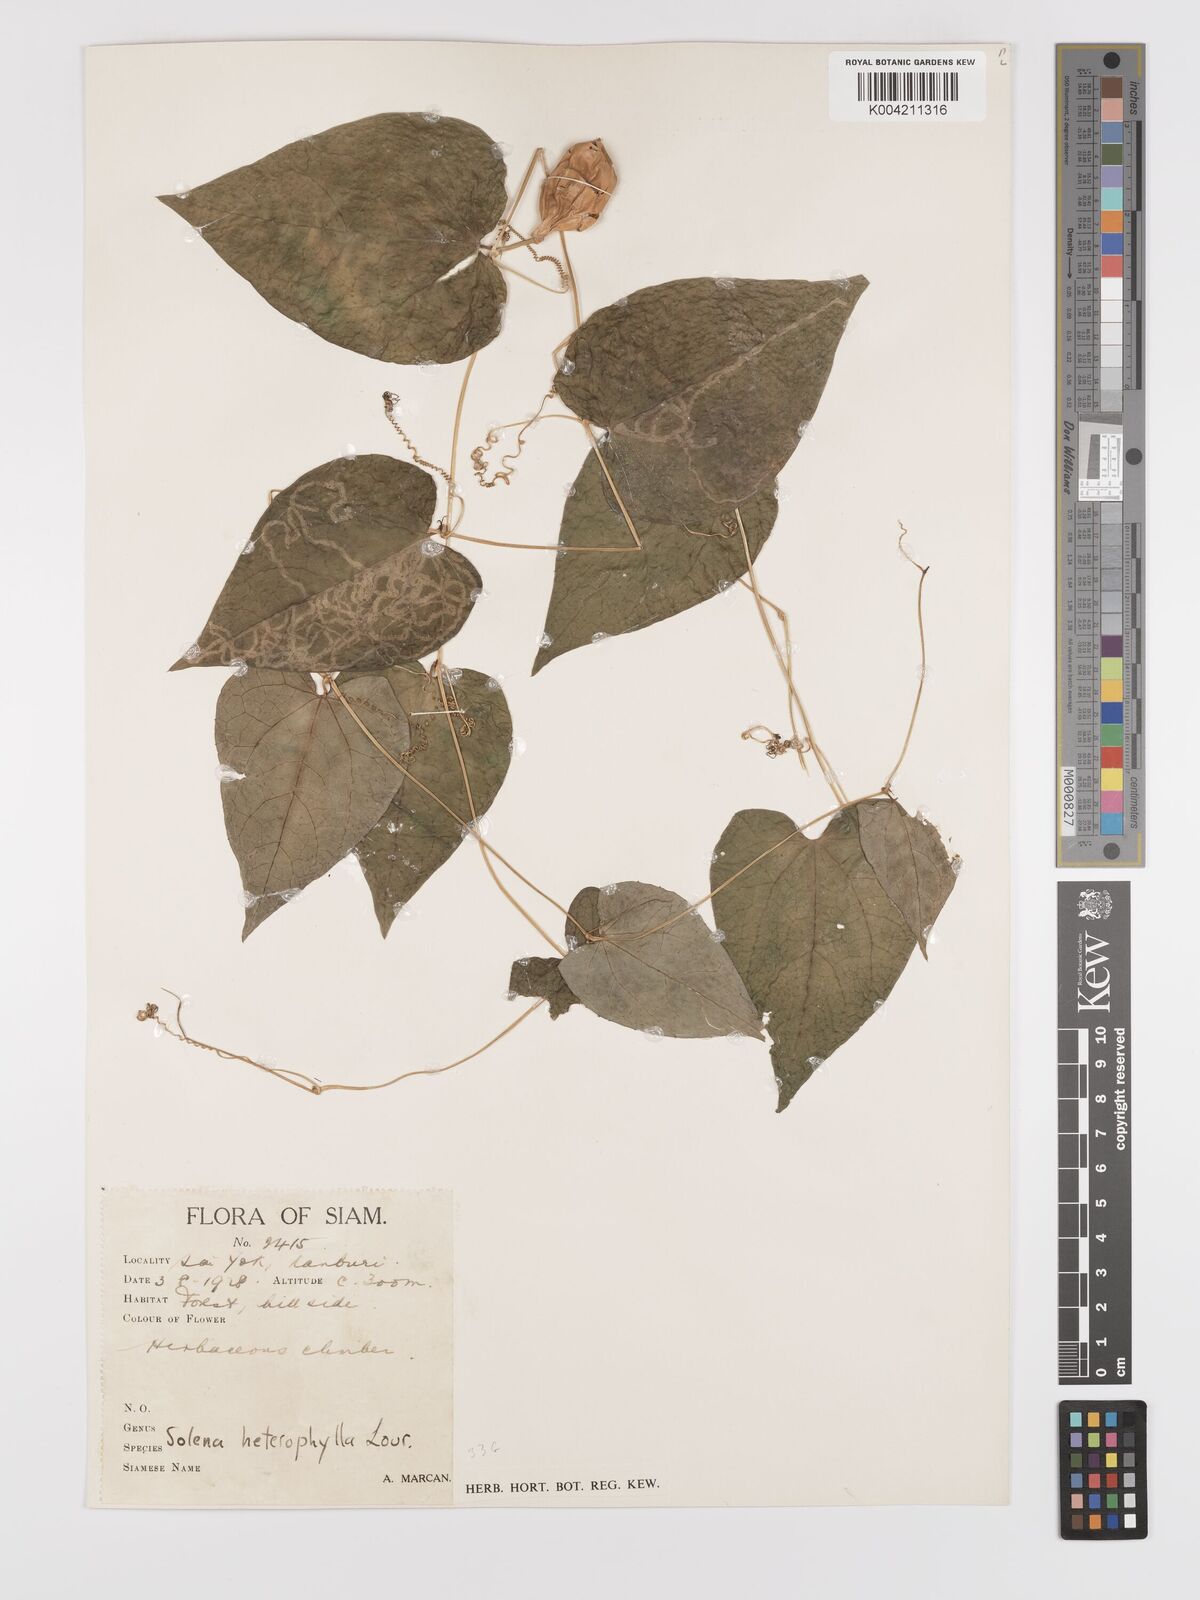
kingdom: Plantae
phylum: Tracheophyta
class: Magnoliopsida
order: Cucurbitales
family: Cucurbitaceae
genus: Solena
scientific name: Solena amplexicaulis
